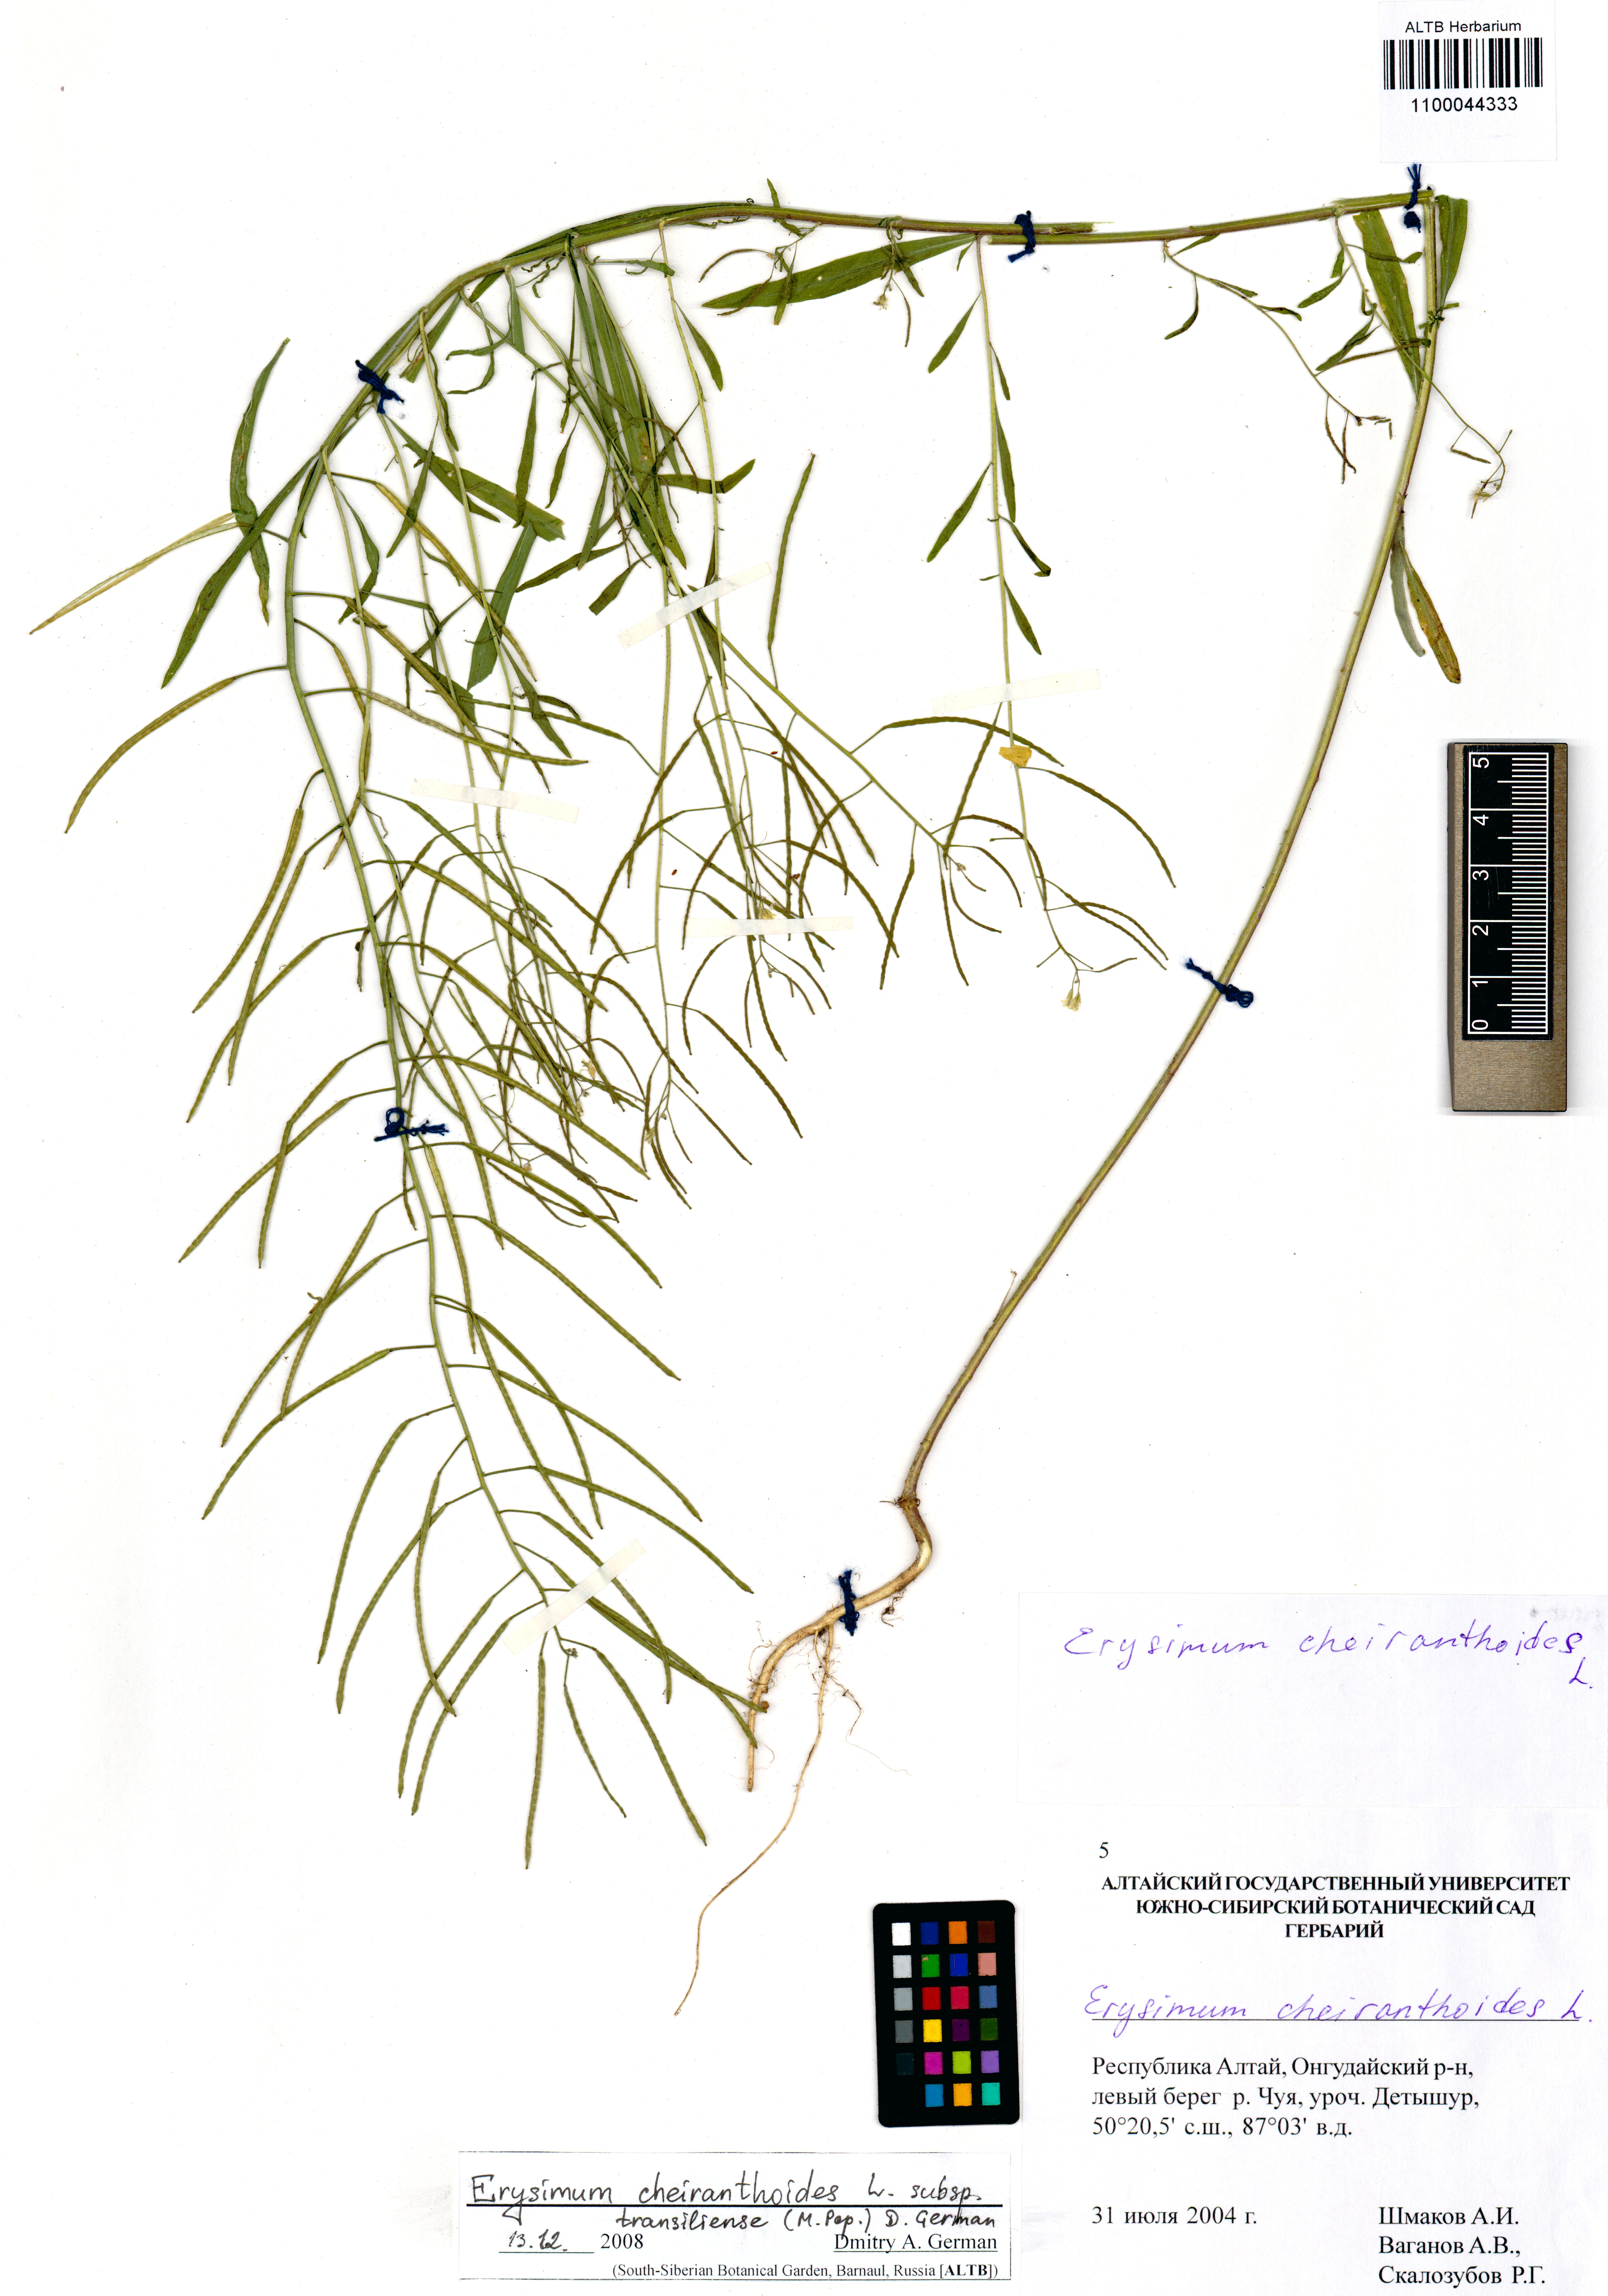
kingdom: Plantae
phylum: Tracheophyta
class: Magnoliopsida
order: Brassicales
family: Brassicaceae
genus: Erysimum
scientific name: Erysimum virgatum
